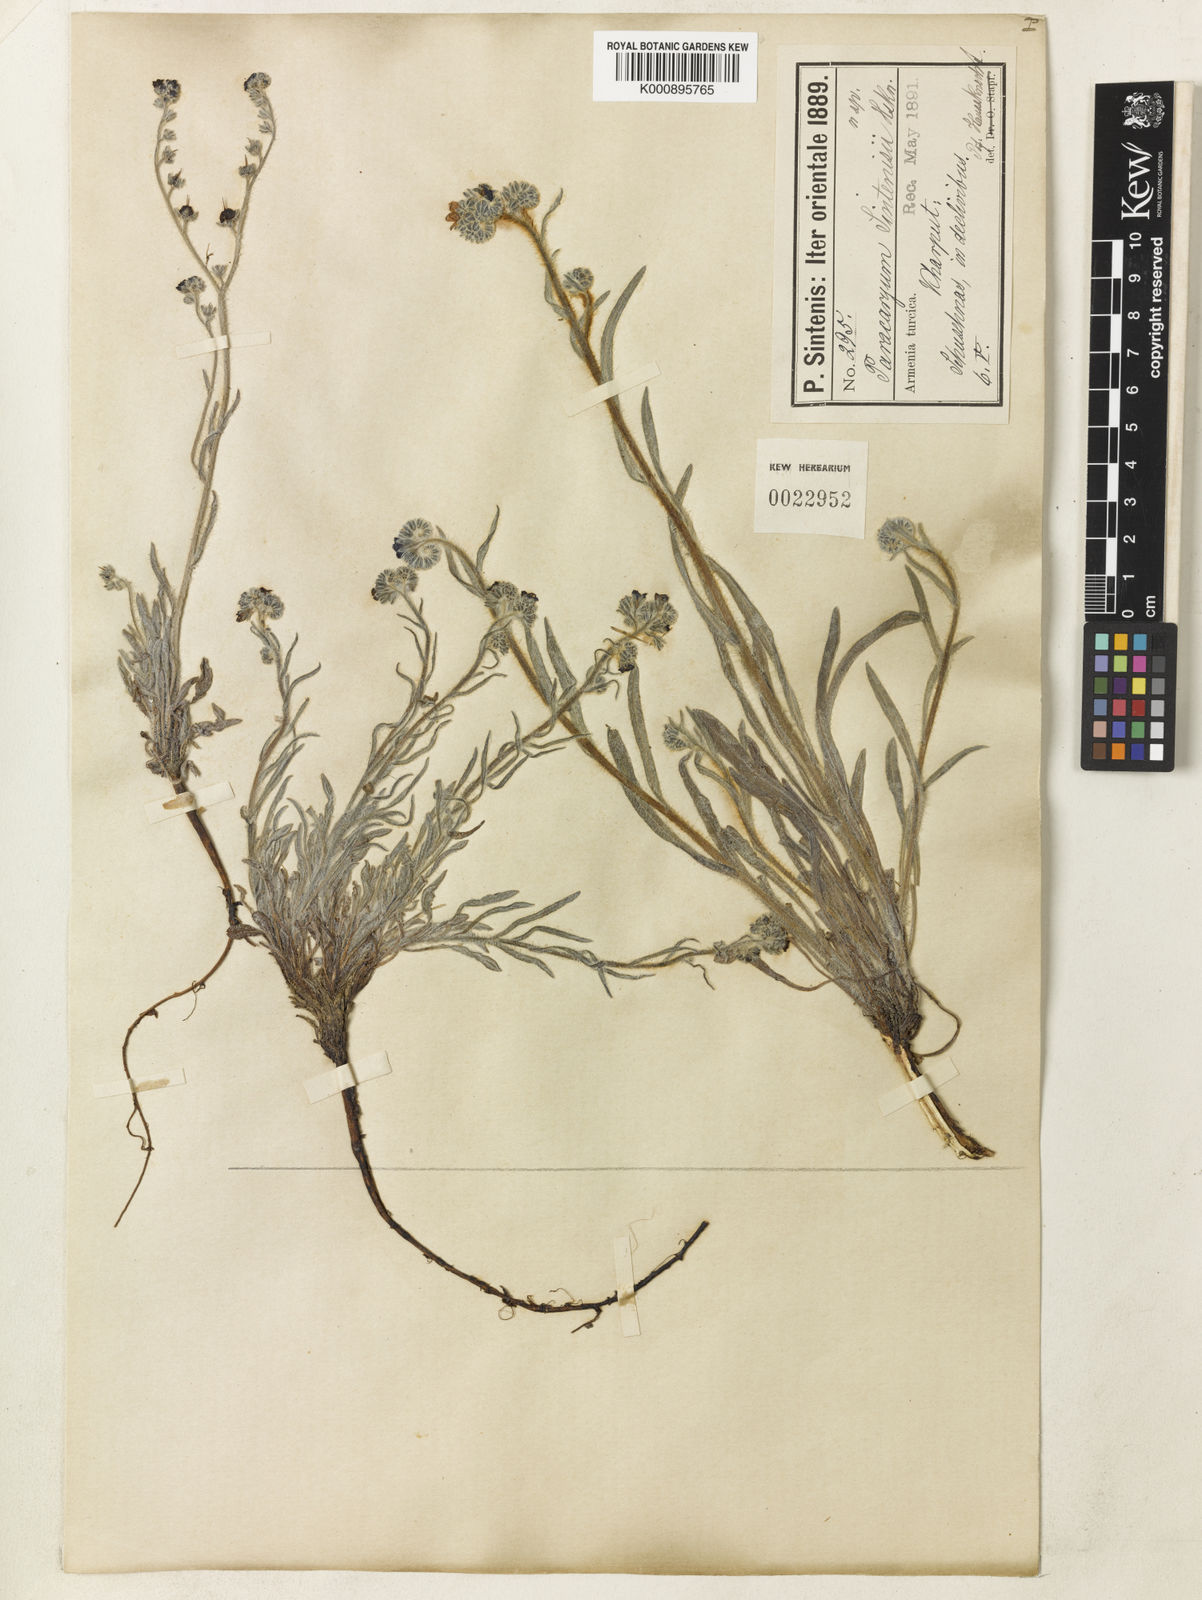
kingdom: Plantae
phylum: Tracheophyta
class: Magnoliopsida
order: Boraginales
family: Boraginaceae
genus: Paracaryum
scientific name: Paracaryum modestum
